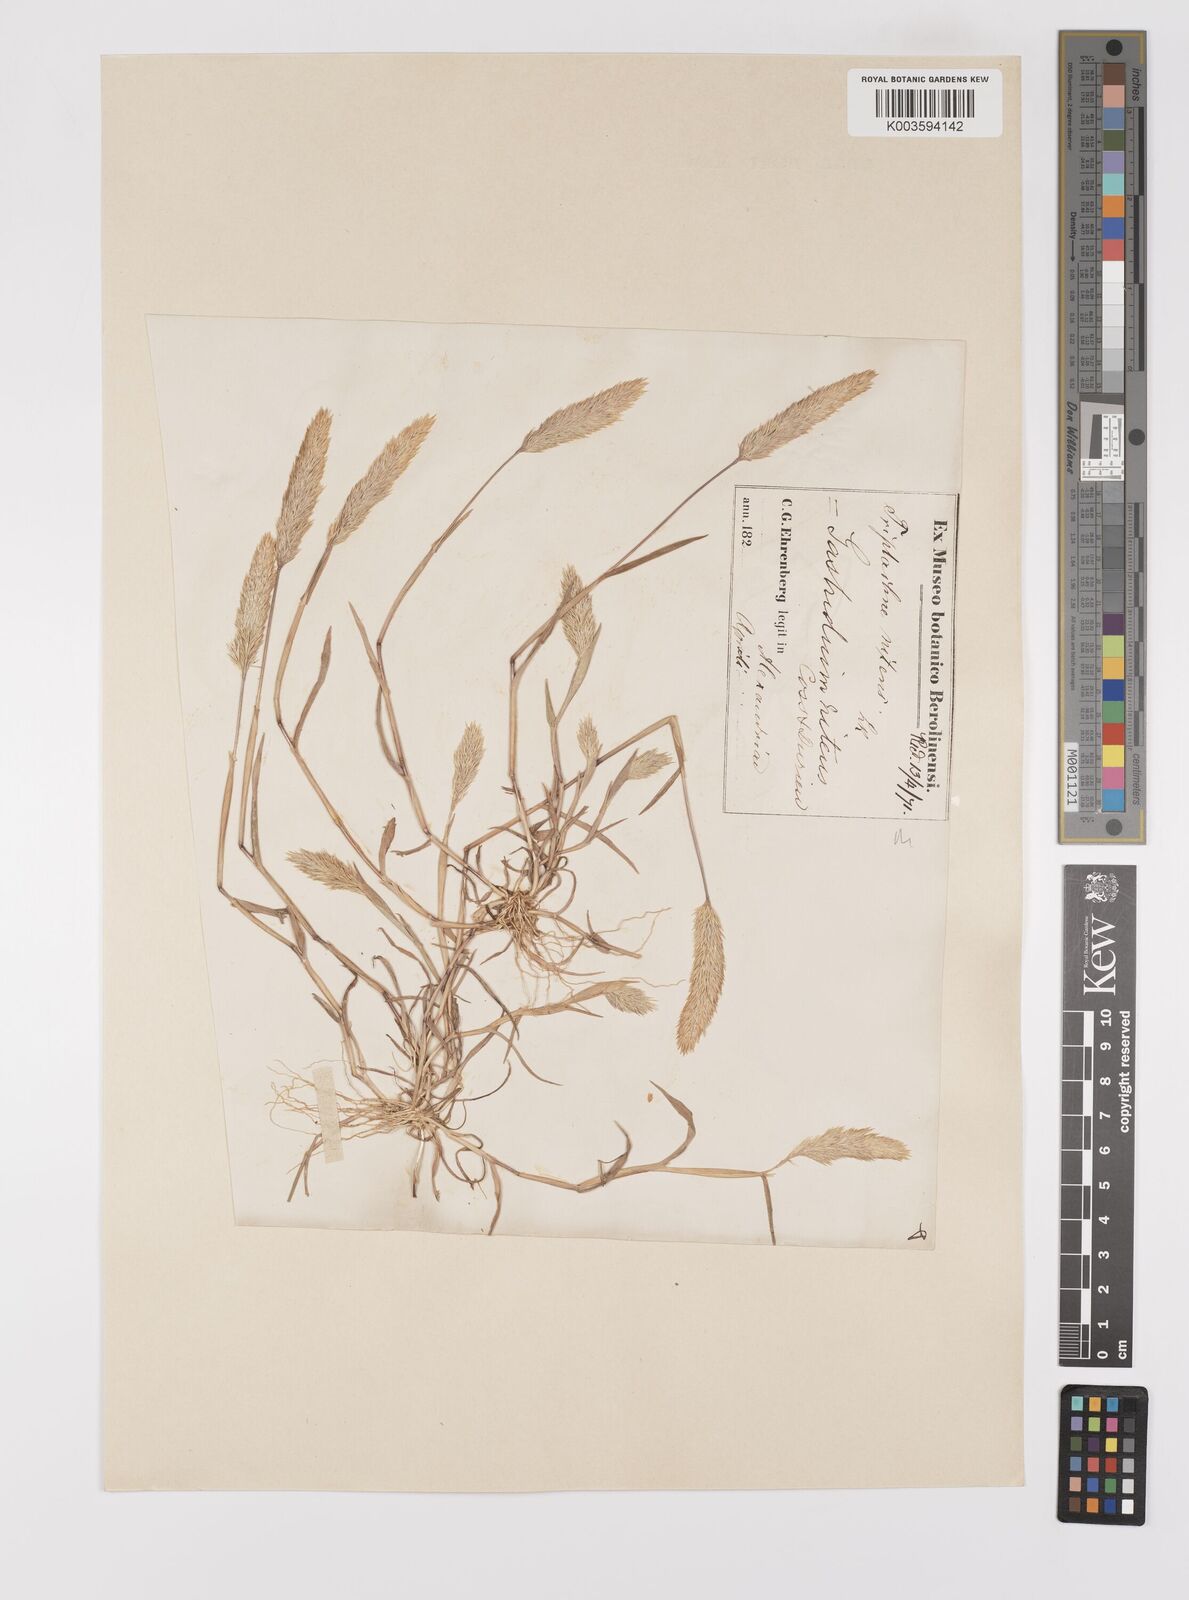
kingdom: Plantae
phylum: Tracheophyta
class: Liliopsida
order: Poales
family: Poaceae
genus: Triplachne
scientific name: Triplachne nitens
